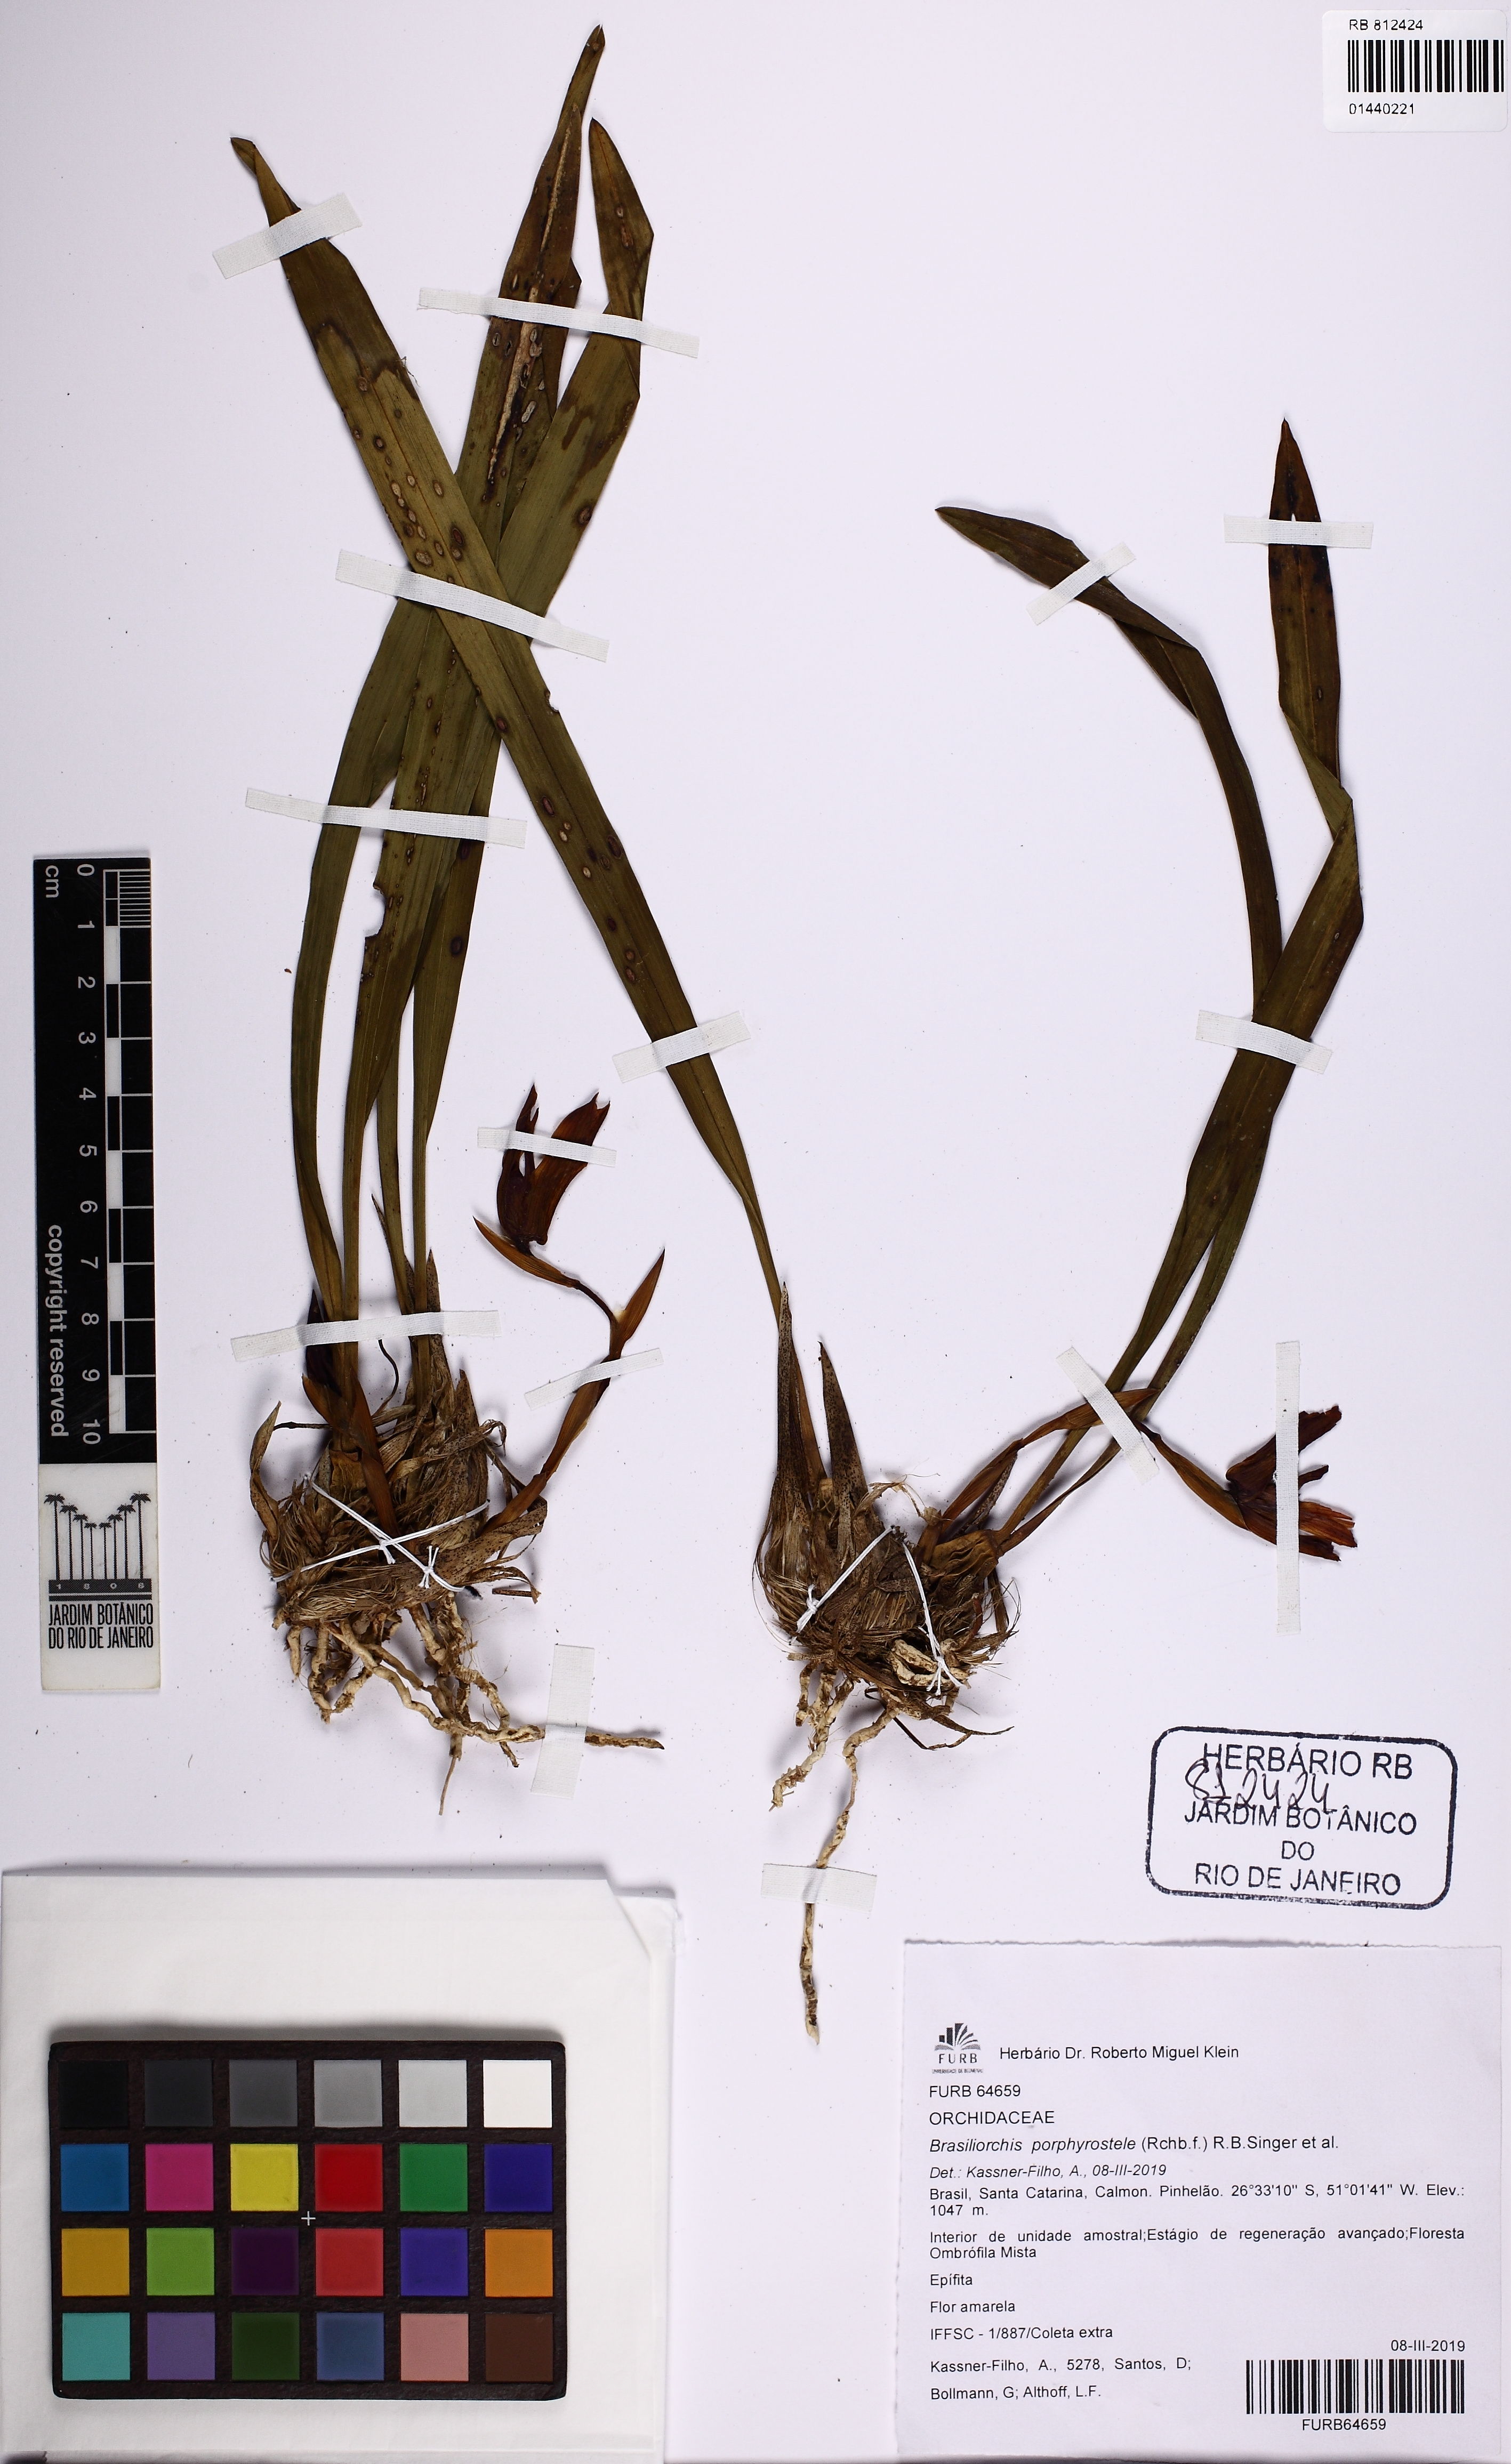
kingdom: Plantae
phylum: Tracheophyta
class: Liliopsida
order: Asparagales
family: Orchidaceae
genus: Maxillaria
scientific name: Maxillaria porphyrostele
